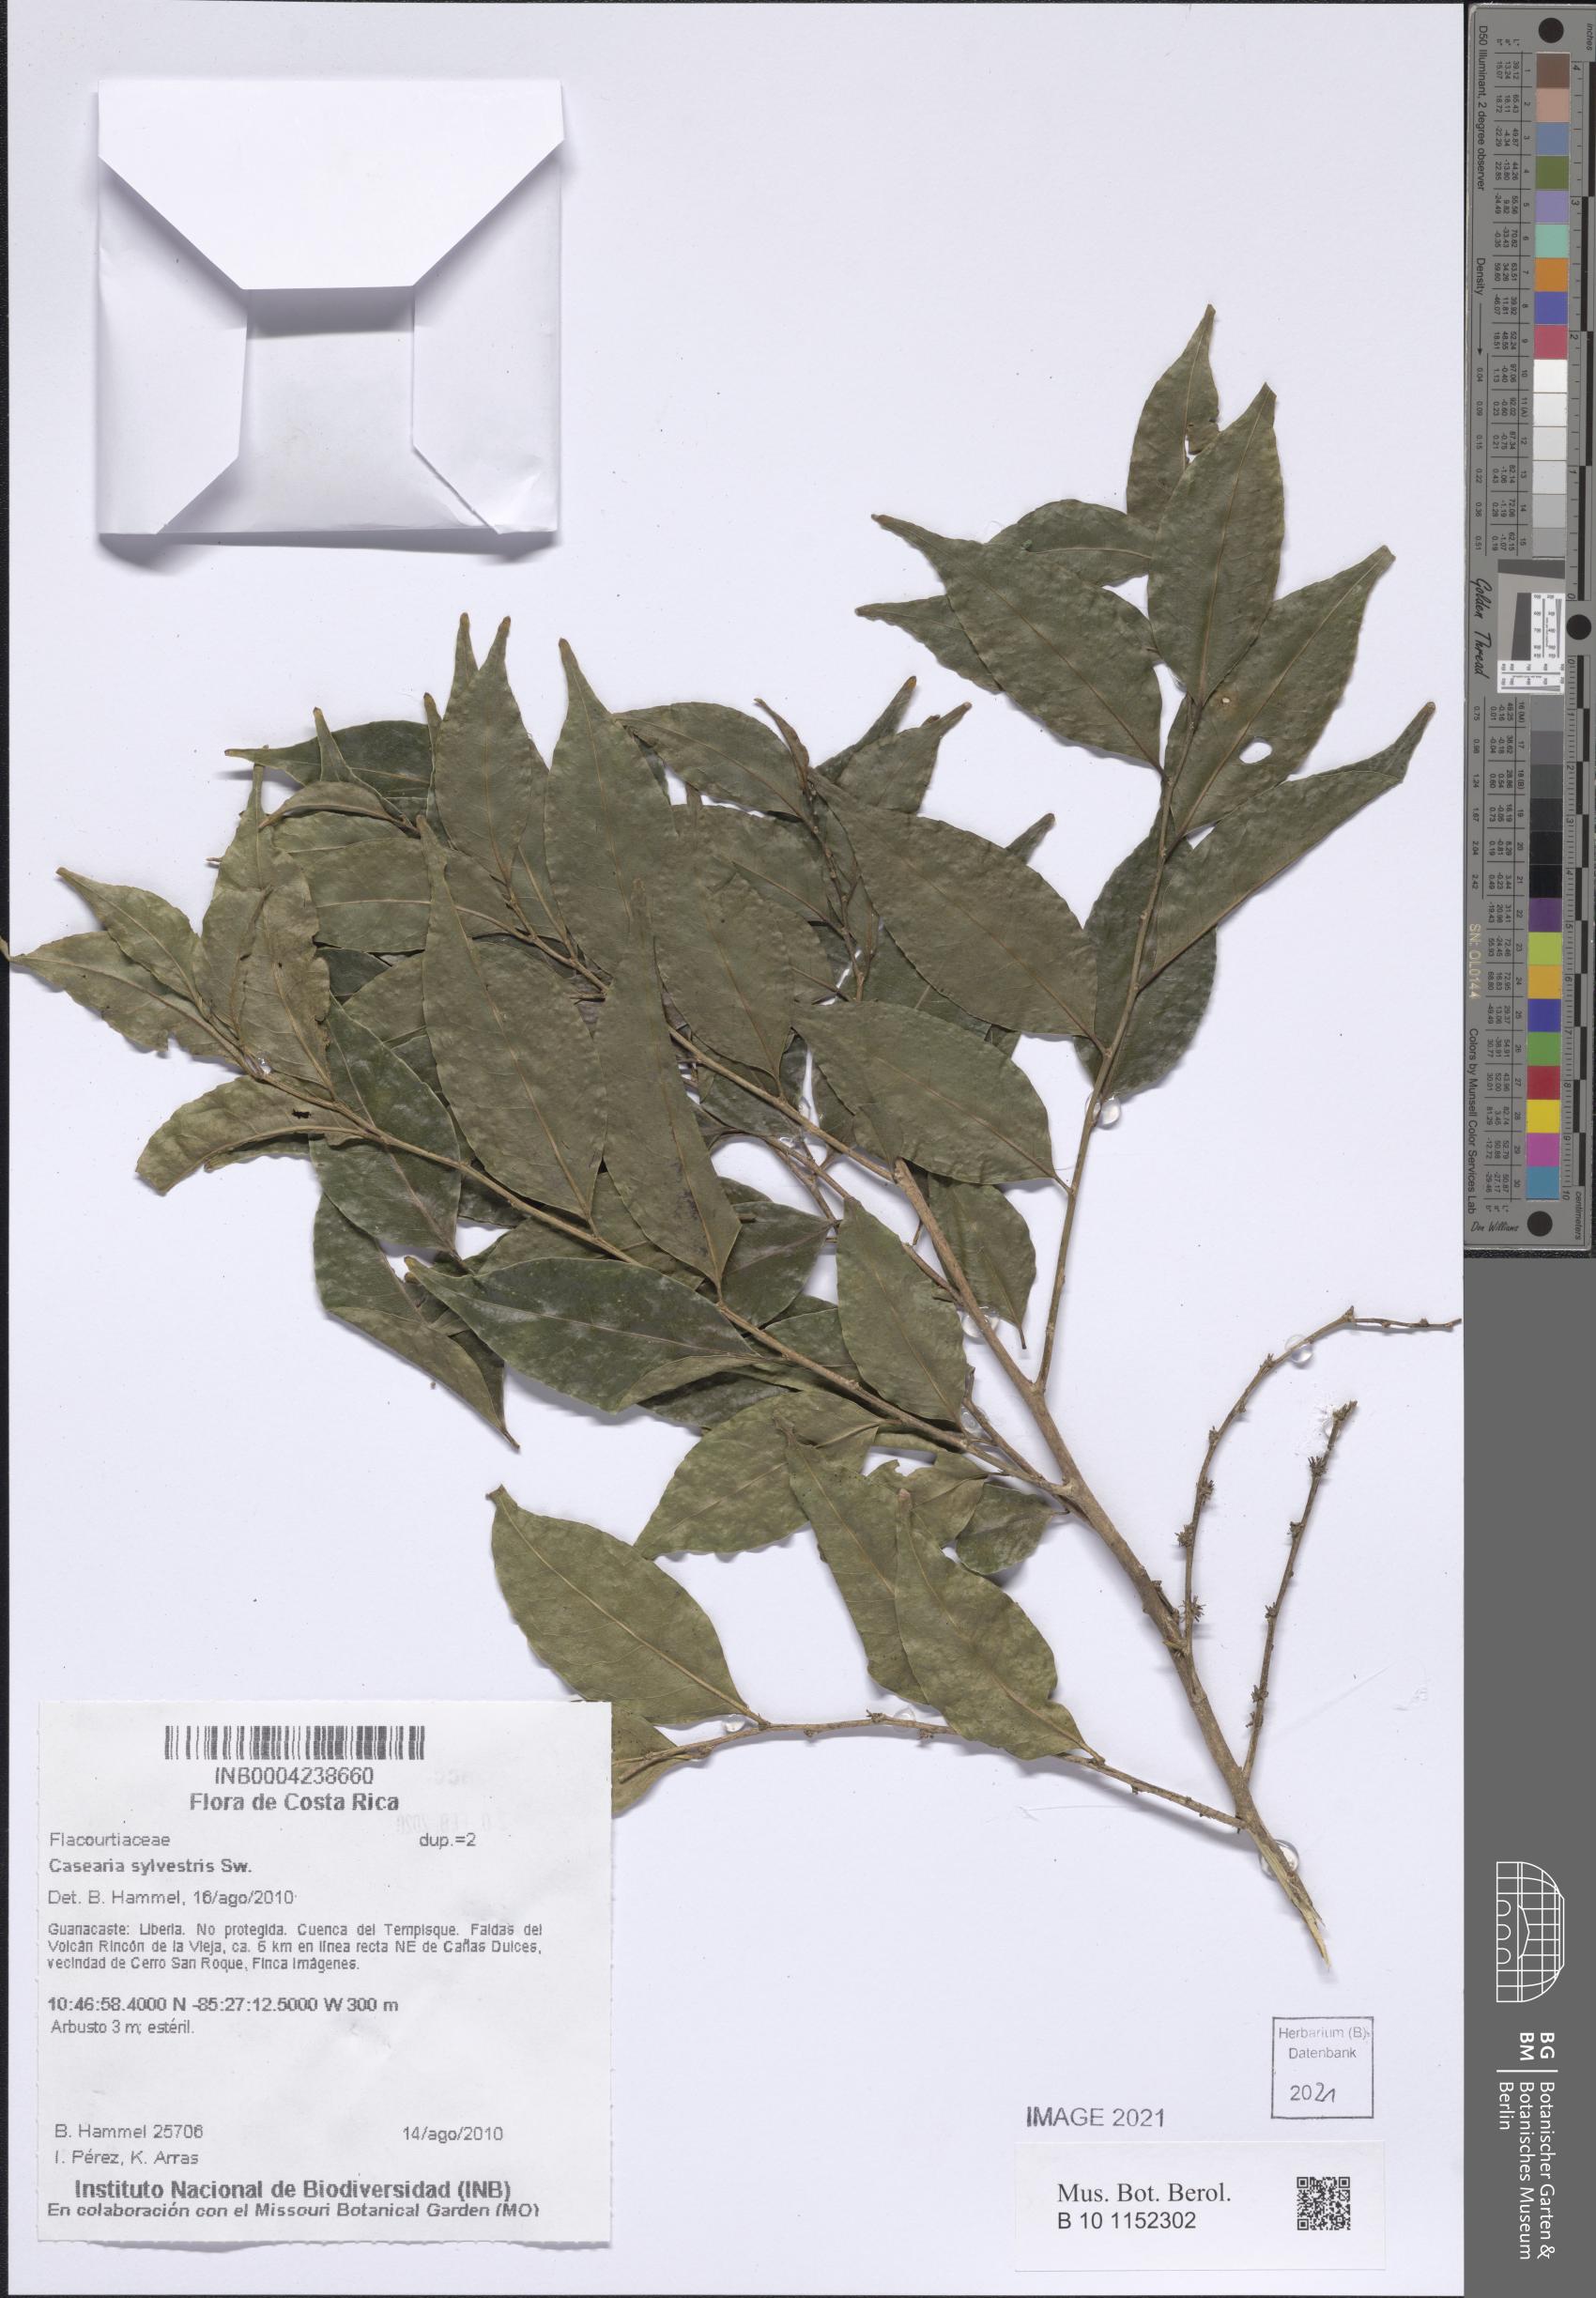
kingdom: Plantae
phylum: Tracheophyta
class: Magnoliopsida
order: Malpighiales
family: Salicaceae
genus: Casearia
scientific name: Casearia sylvestris
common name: Wild sage
